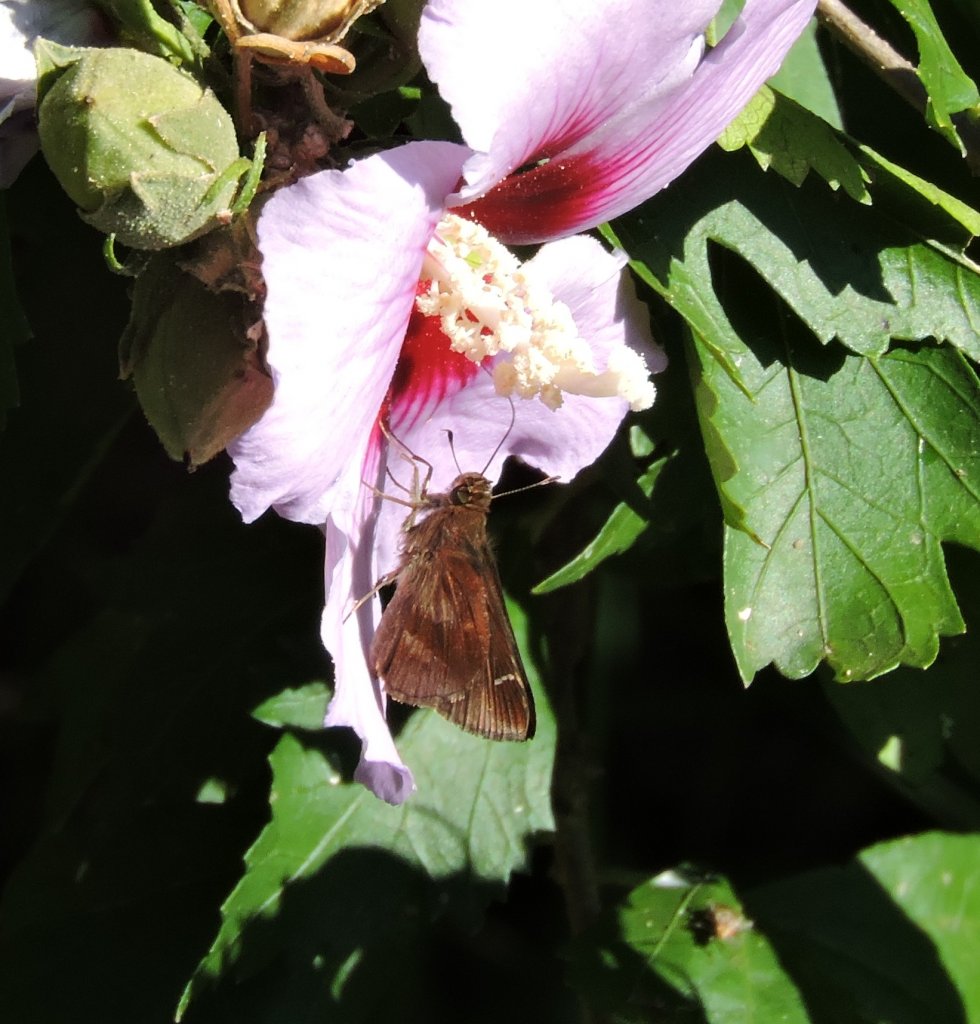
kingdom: Animalia
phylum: Arthropoda
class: Insecta
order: Lepidoptera
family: Hesperiidae
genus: Lerema
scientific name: Lerema accius
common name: Clouded Skipper
